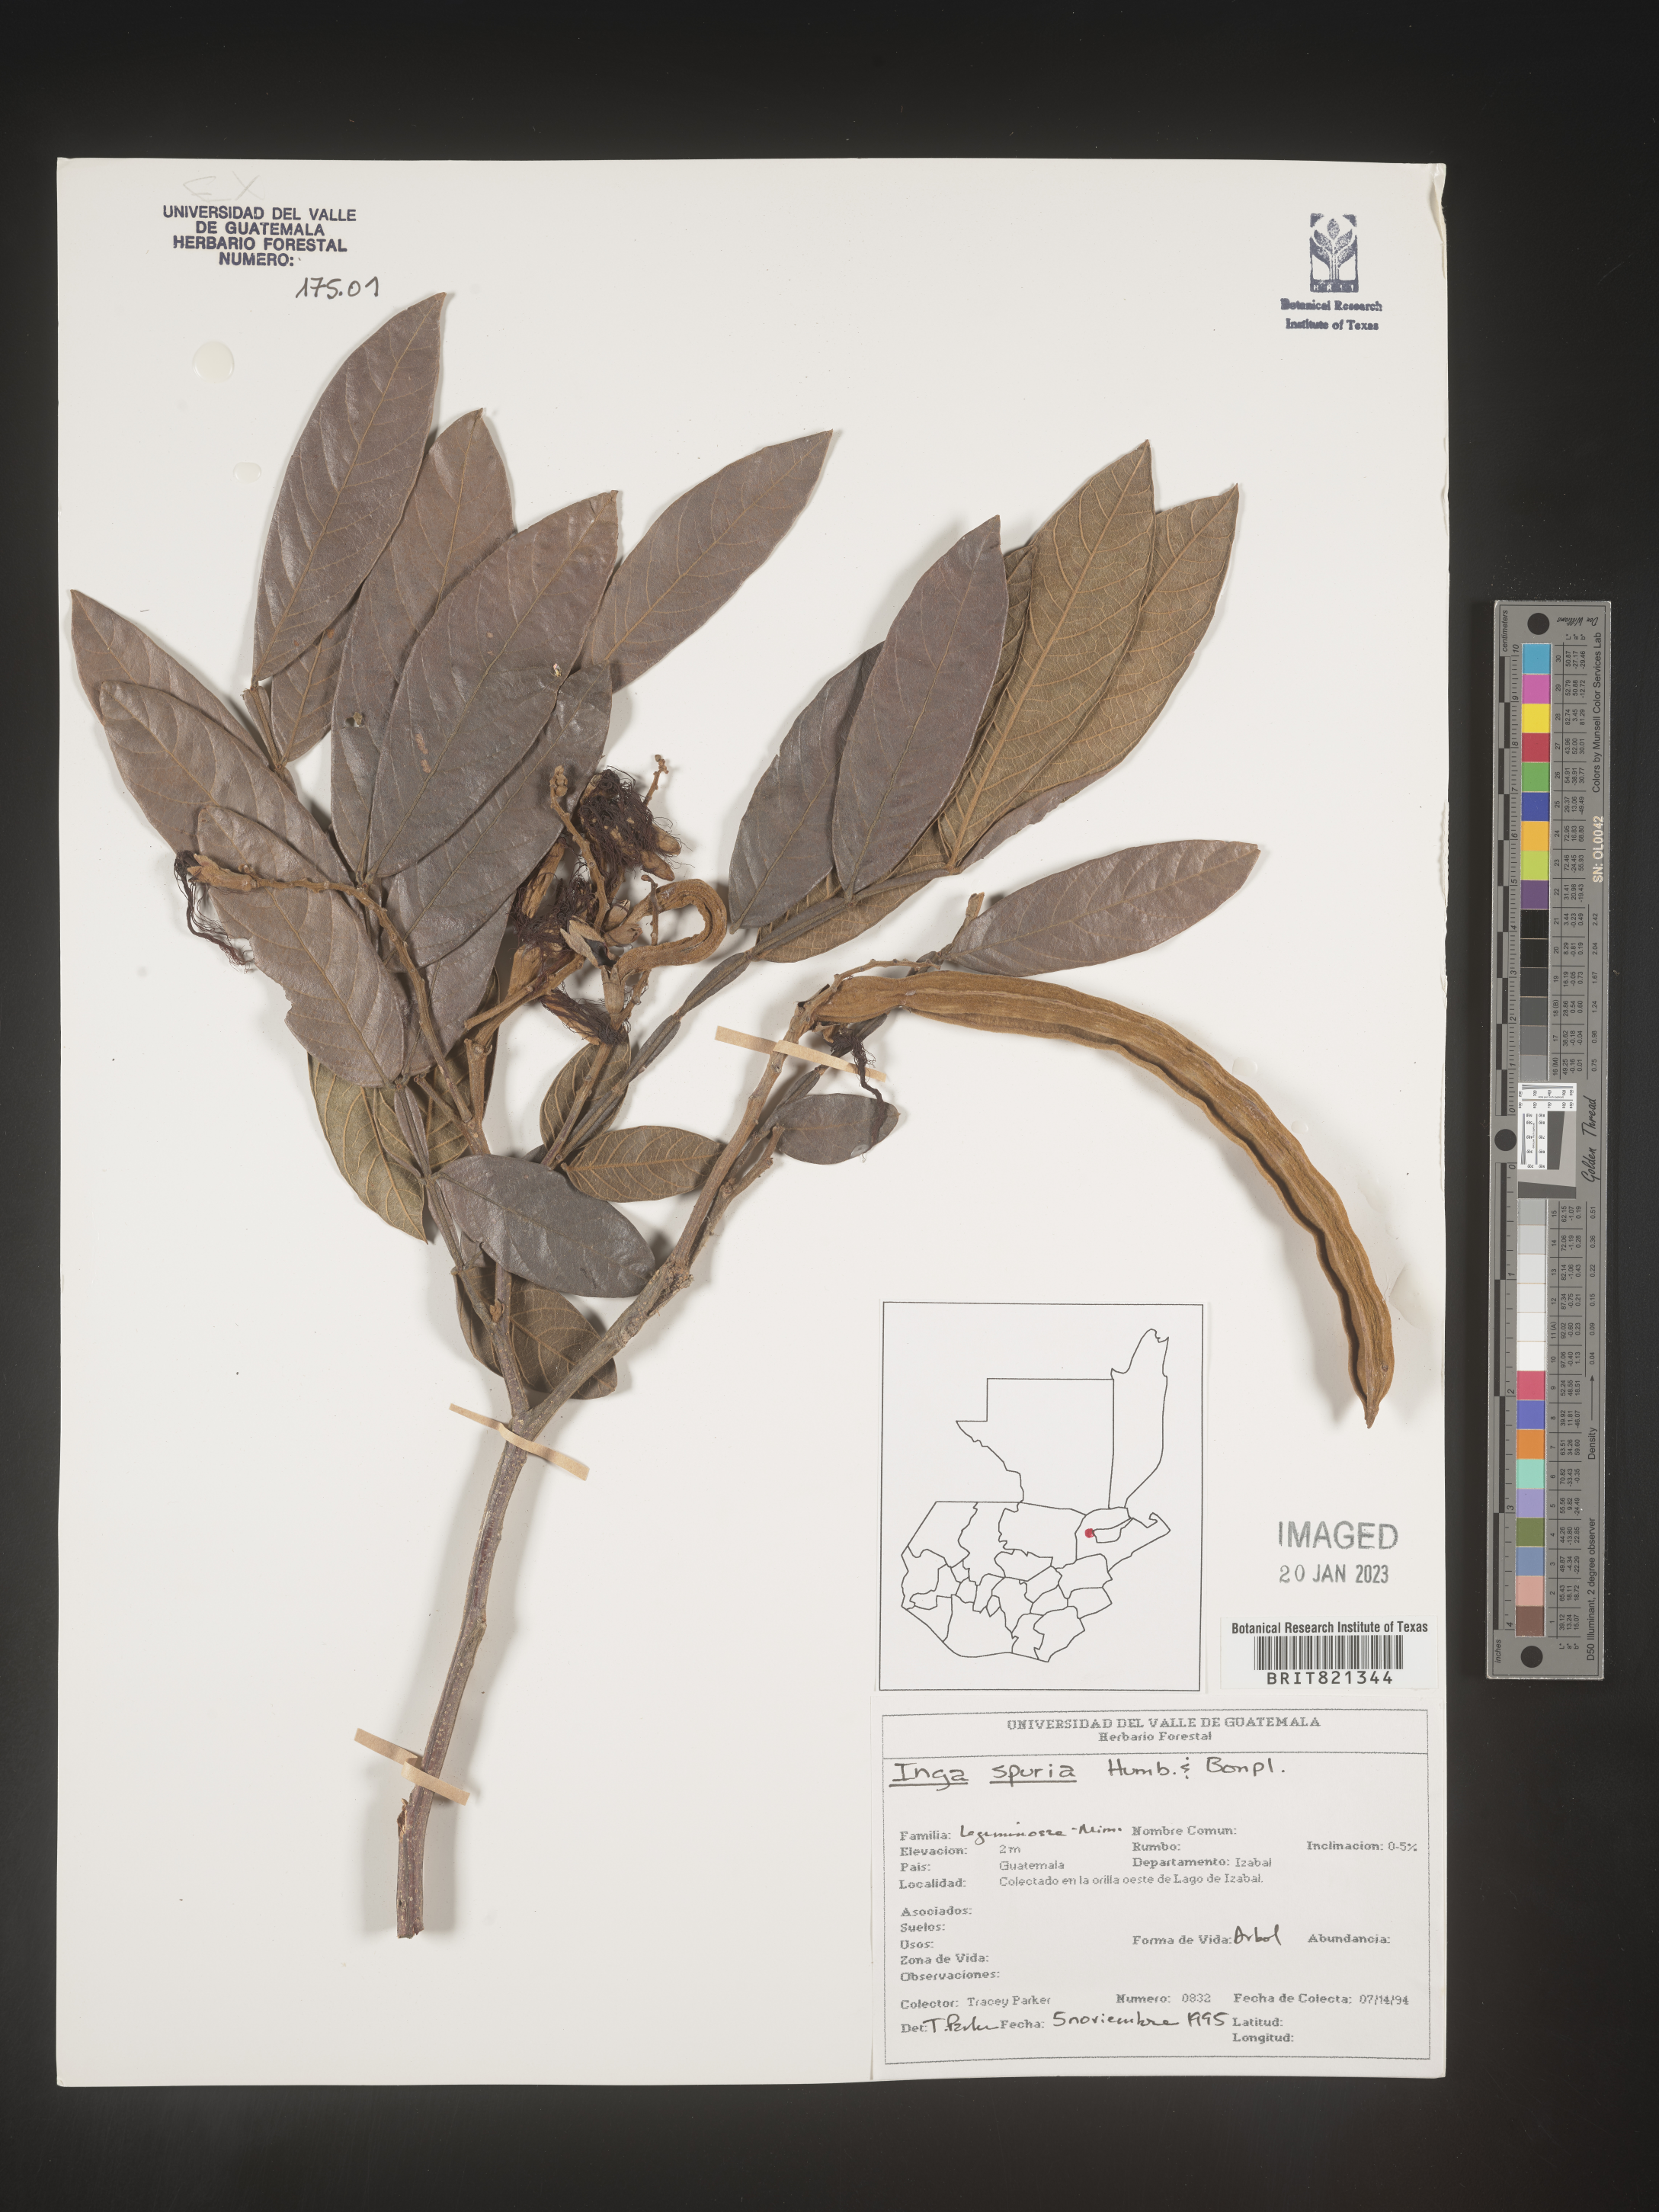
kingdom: Plantae
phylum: Tracheophyta
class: Magnoliopsida
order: Fabales
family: Fabaceae
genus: Inga
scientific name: Inga
